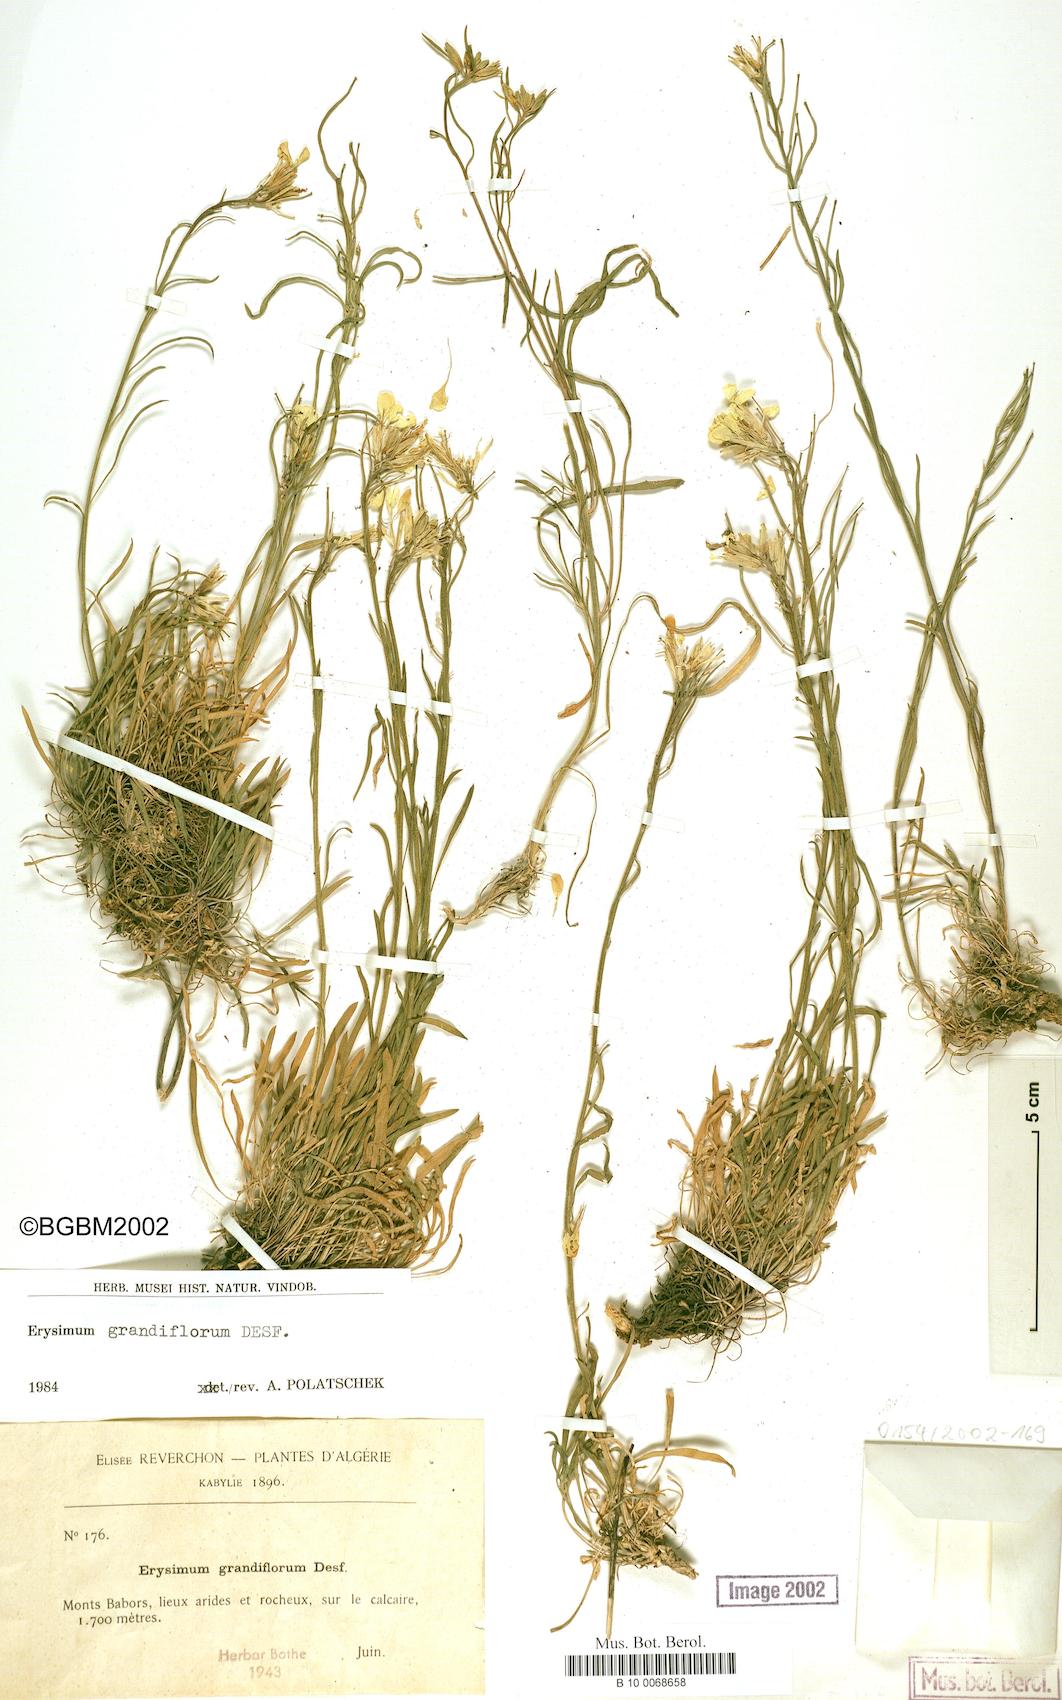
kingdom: Plantae
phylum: Tracheophyta
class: Magnoliopsida
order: Brassicales
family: Brassicaceae
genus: Erysimum
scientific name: Erysimum grandiflorum
